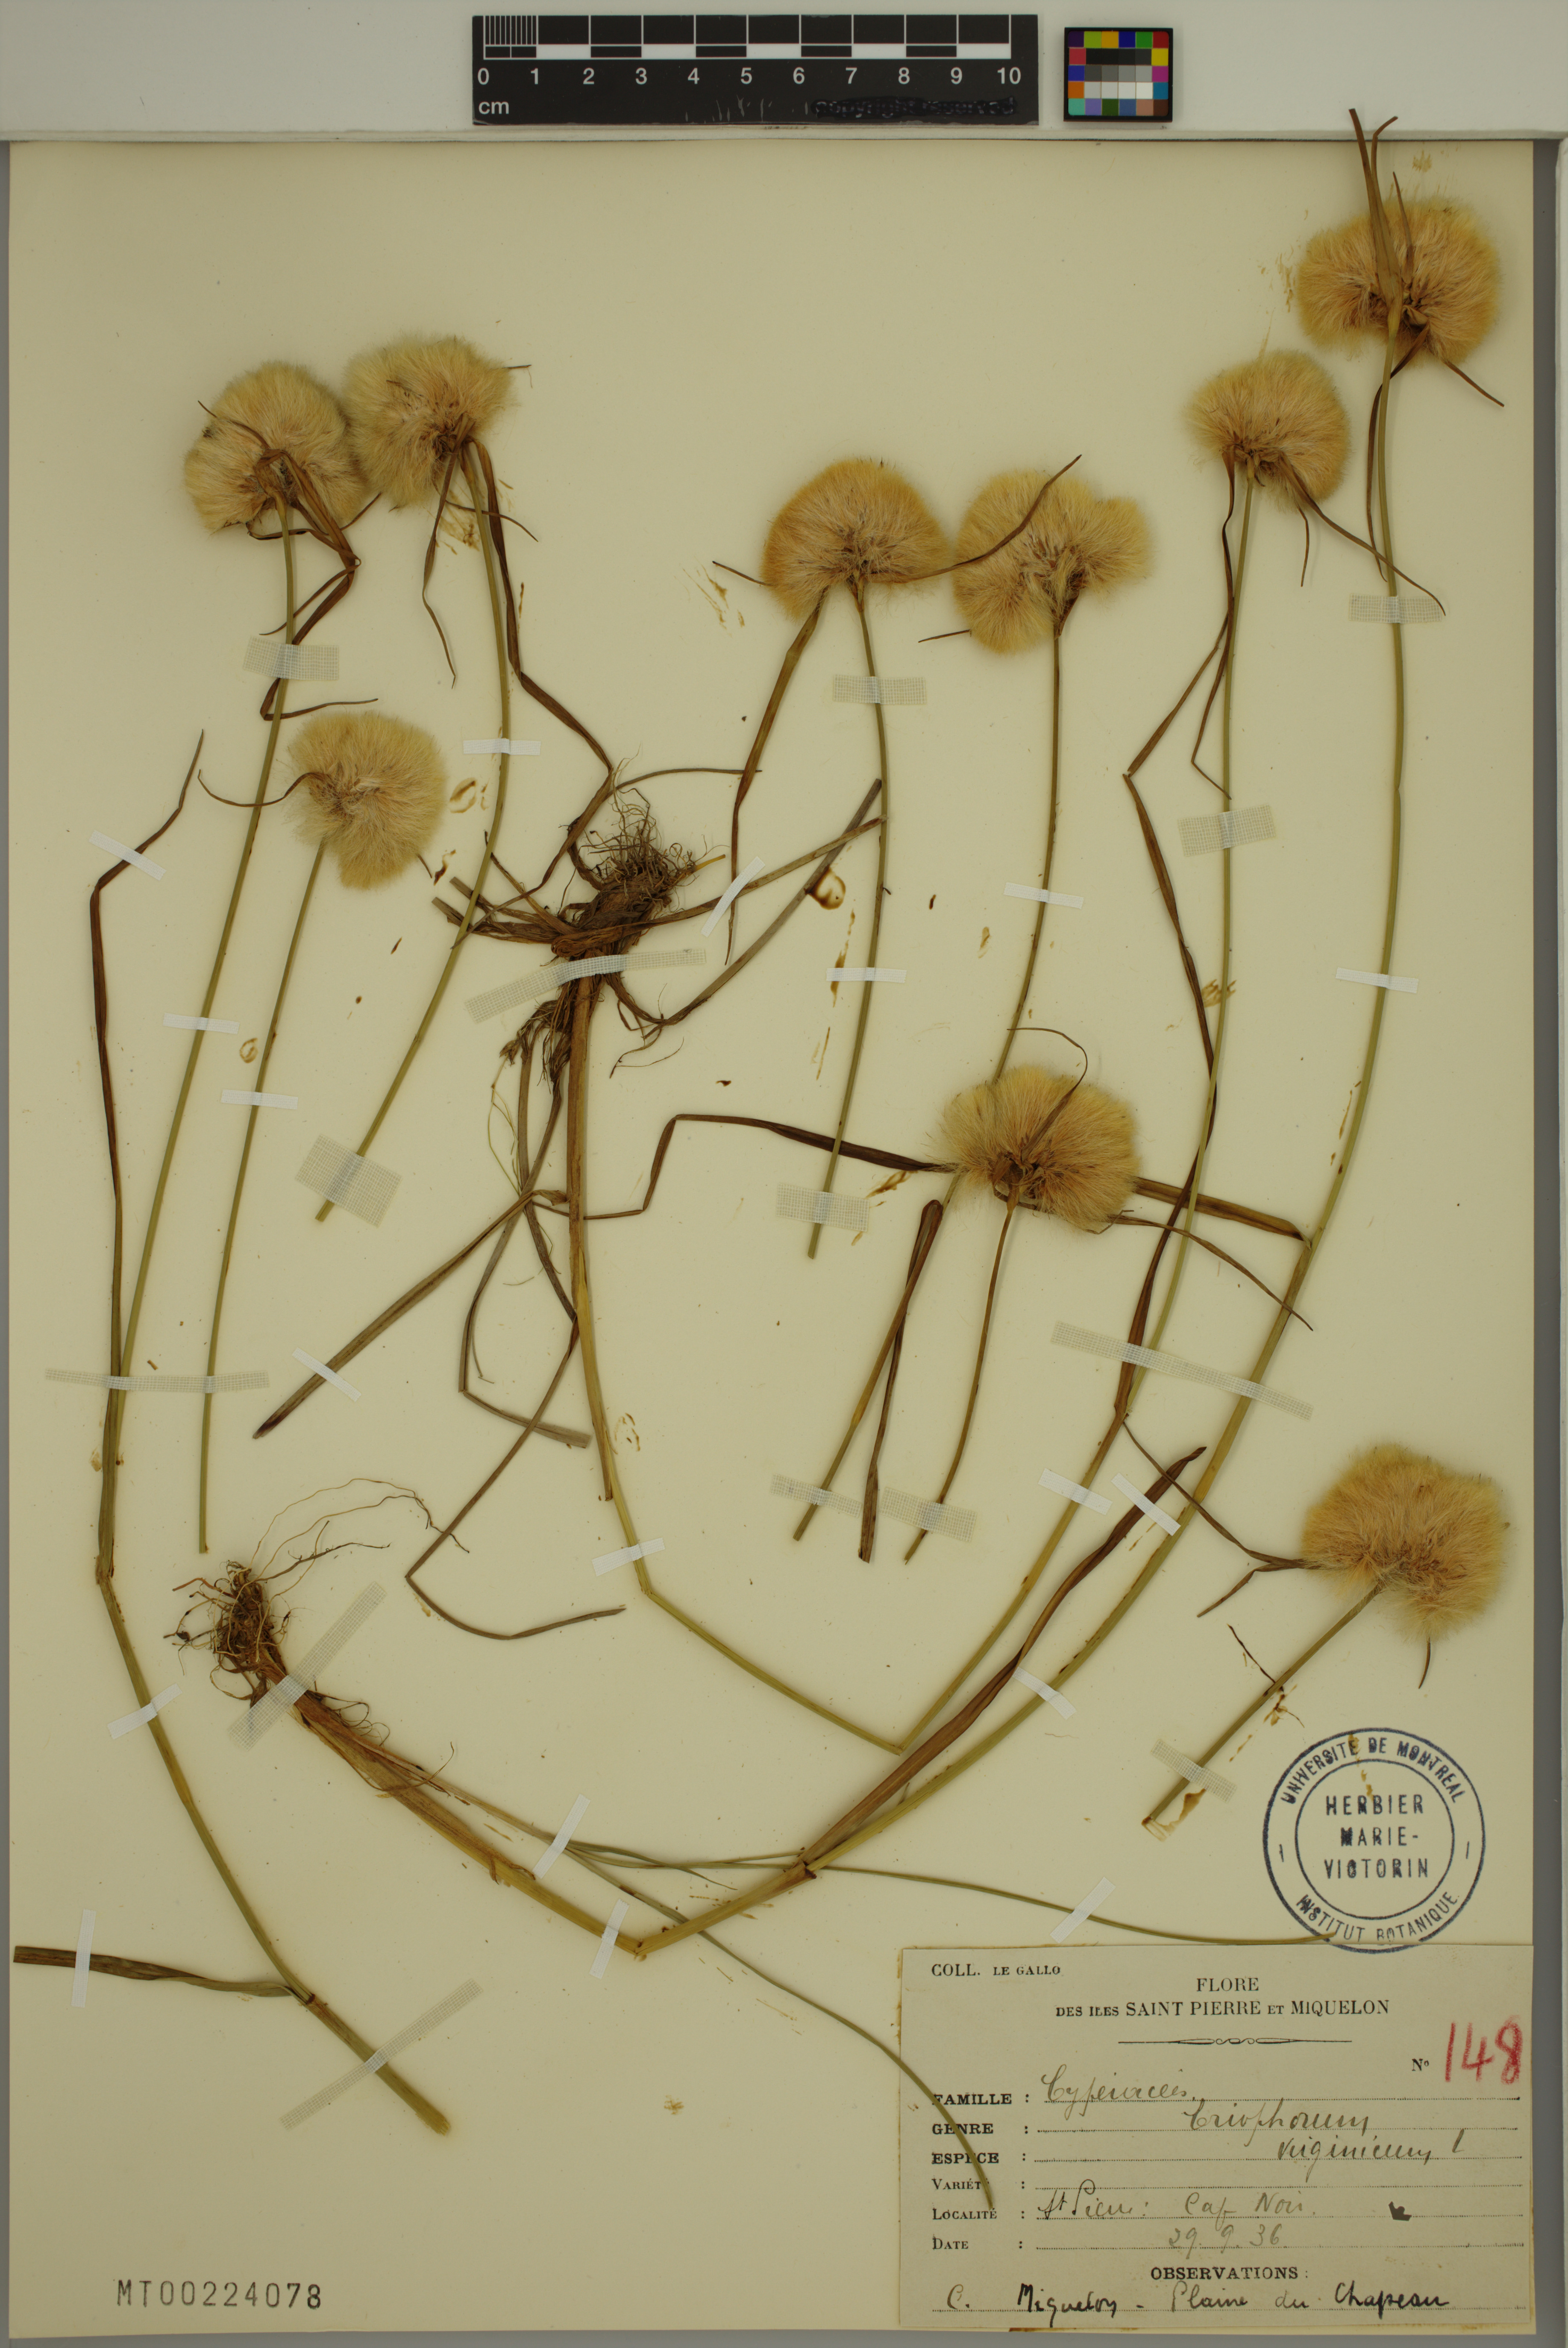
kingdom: Plantae
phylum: Tracheophyta
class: Liliopsida
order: Poales
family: Cyperaceae
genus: Eriophorum
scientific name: Eriophorum virginicum
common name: Tawny cottongrass
